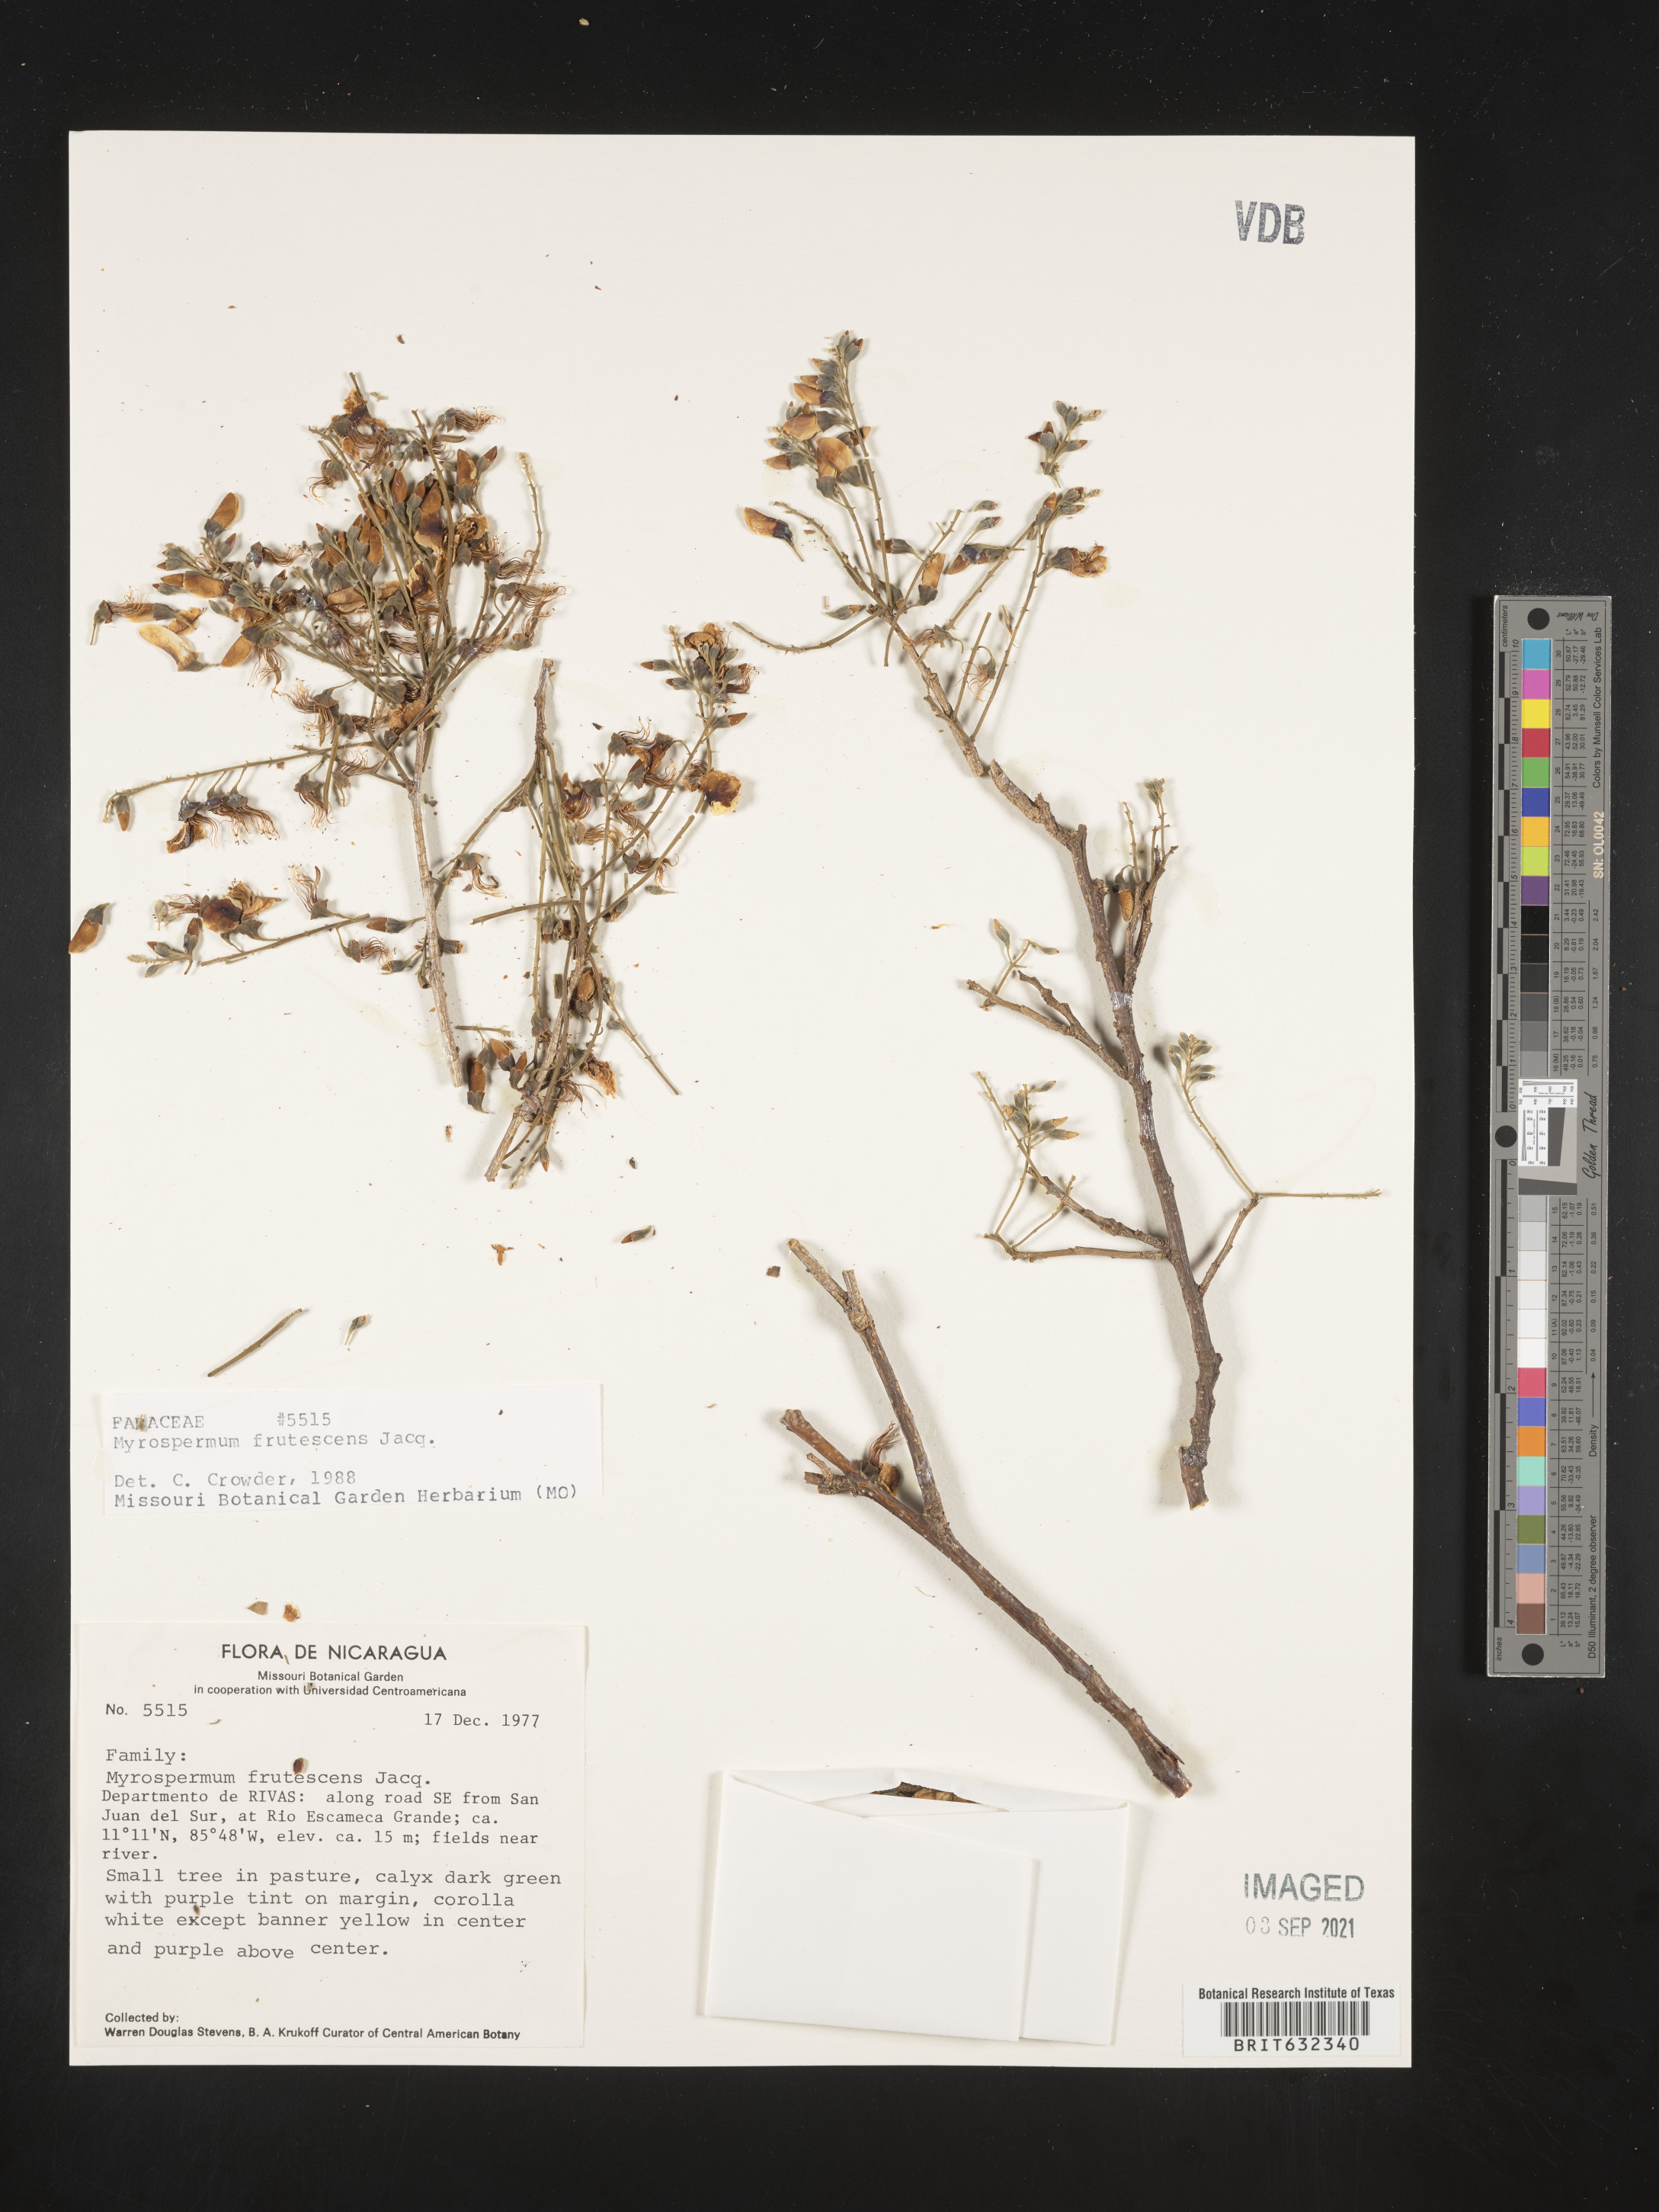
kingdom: Plantae
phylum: Tracheophyta
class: Magnoliopsida
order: Fabales
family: Fabaceae
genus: Myrospermum
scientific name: Myrospermum
